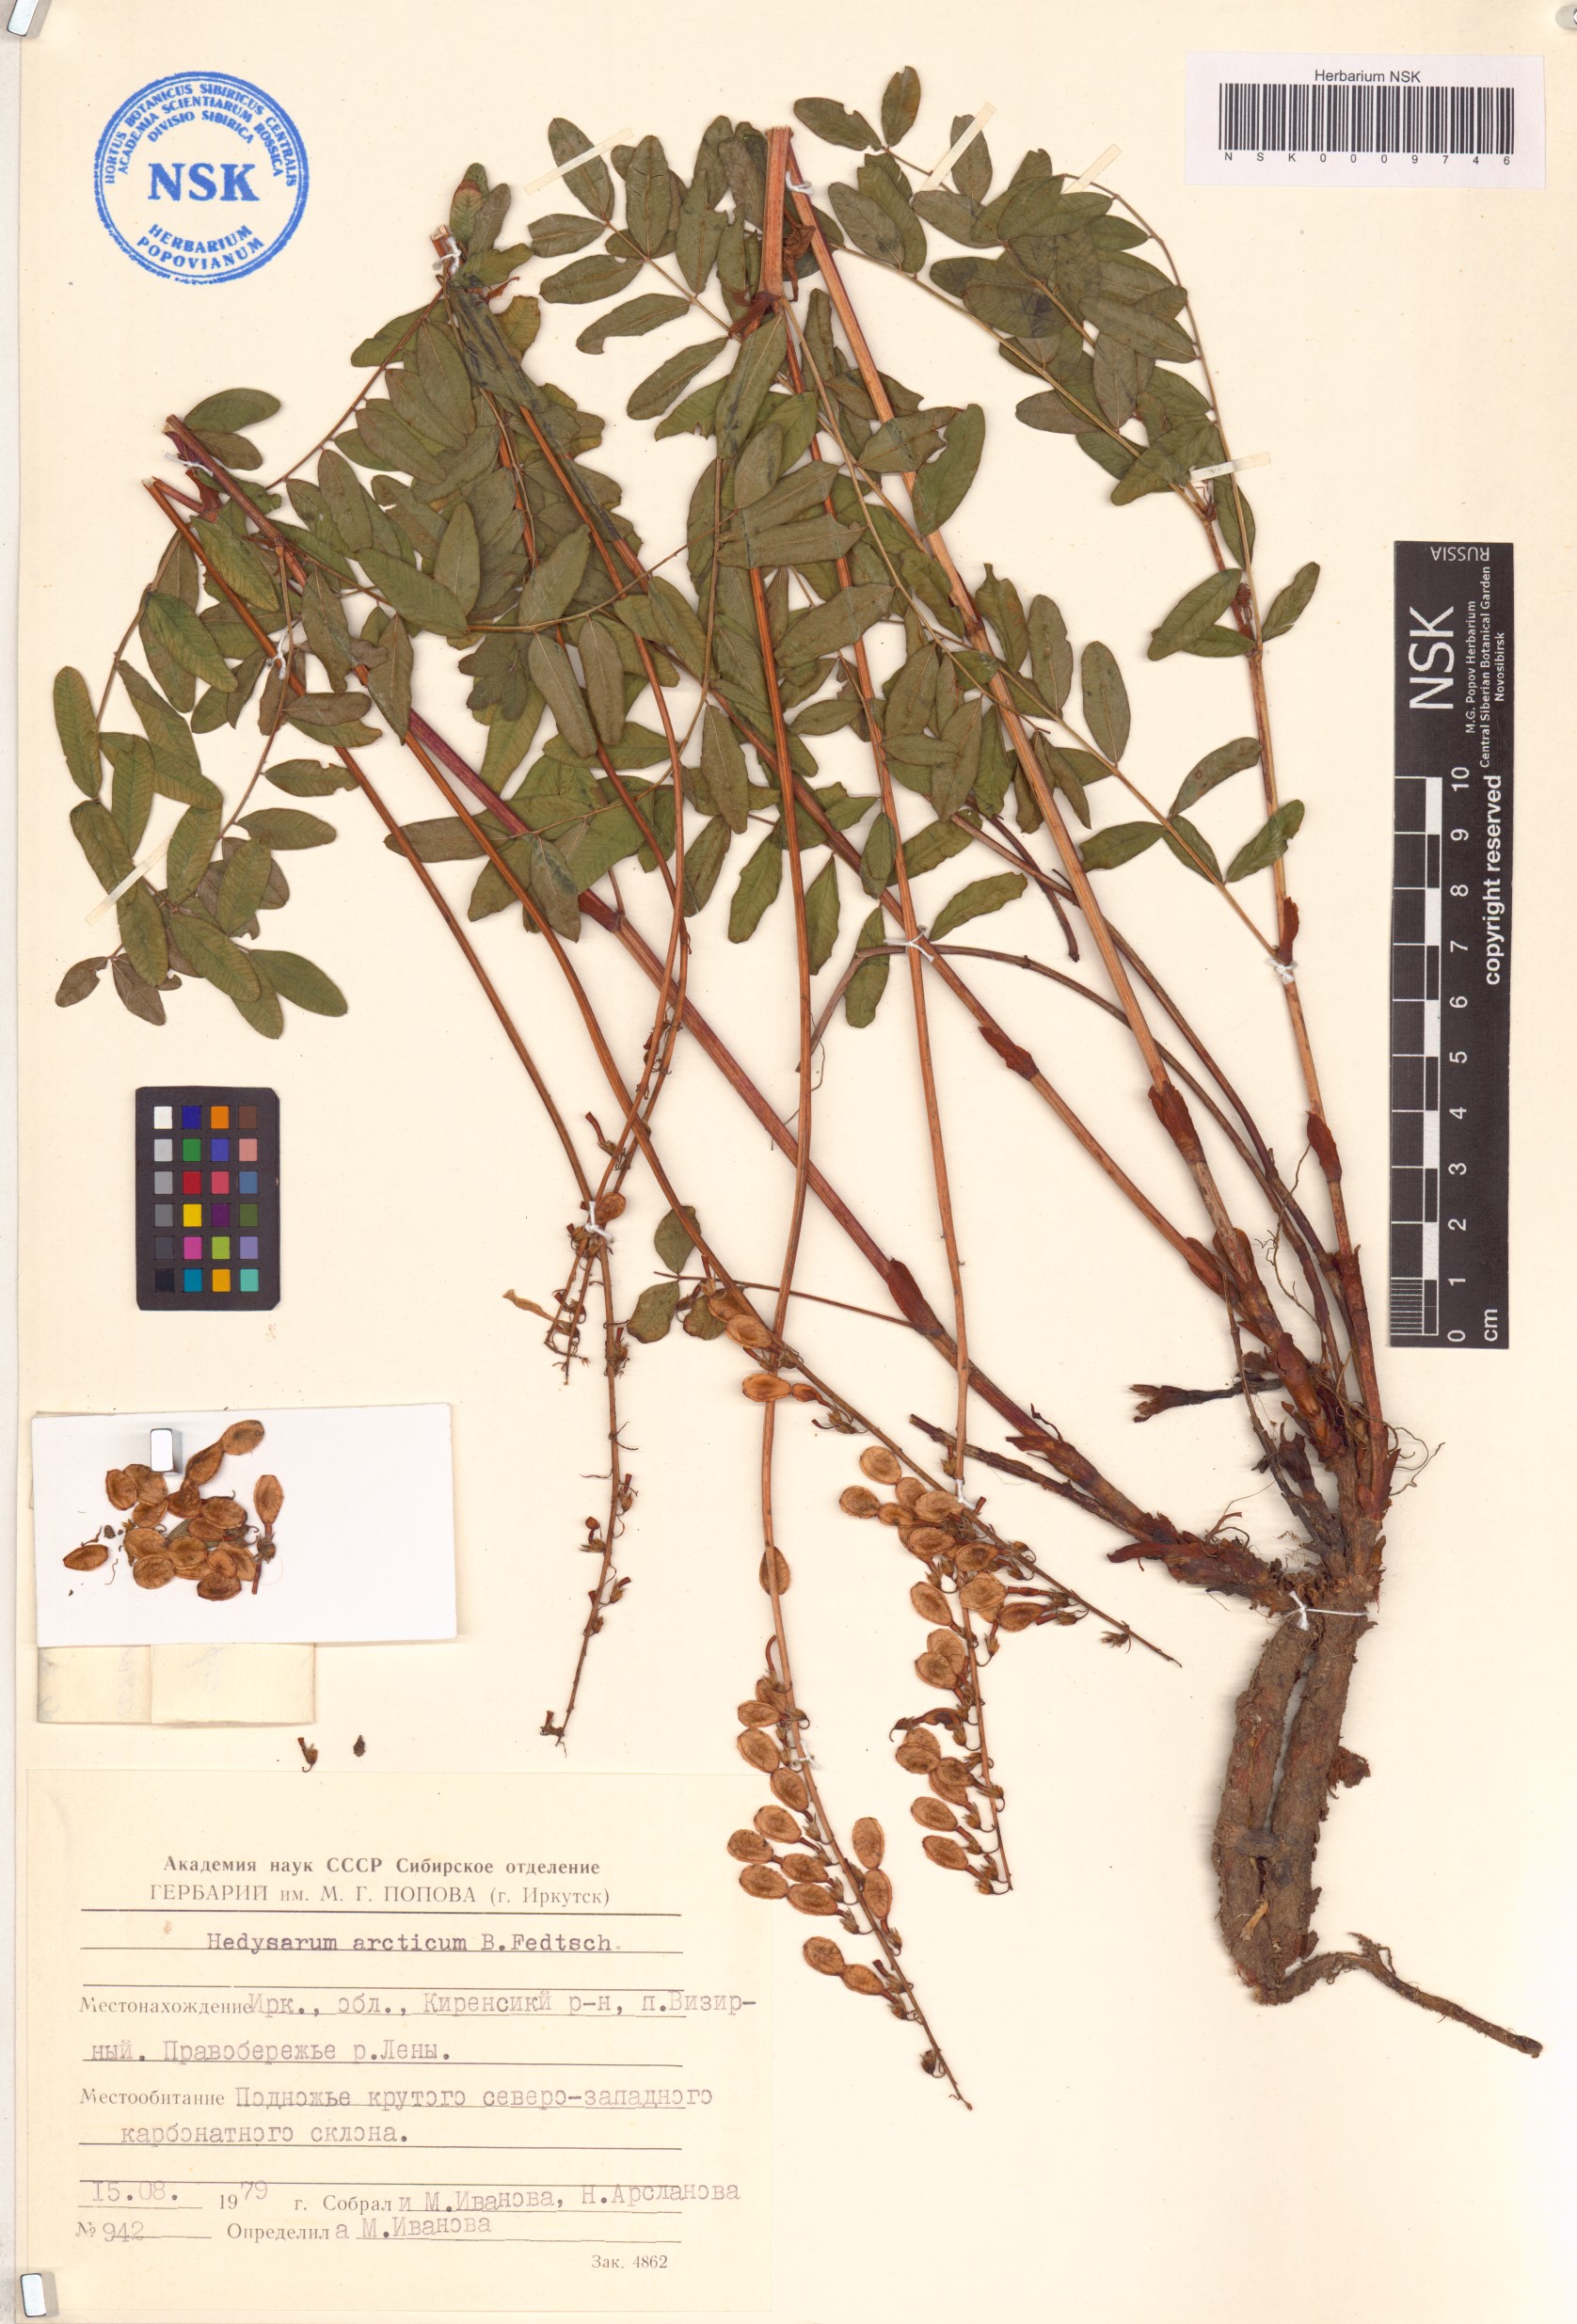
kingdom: Plantae
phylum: Tracheophyta
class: Magnoliopsida
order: Fabales
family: Fabaceae
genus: Hedysarum
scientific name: Hedysarum hedysaroides
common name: Alpine french-honeysuckle
